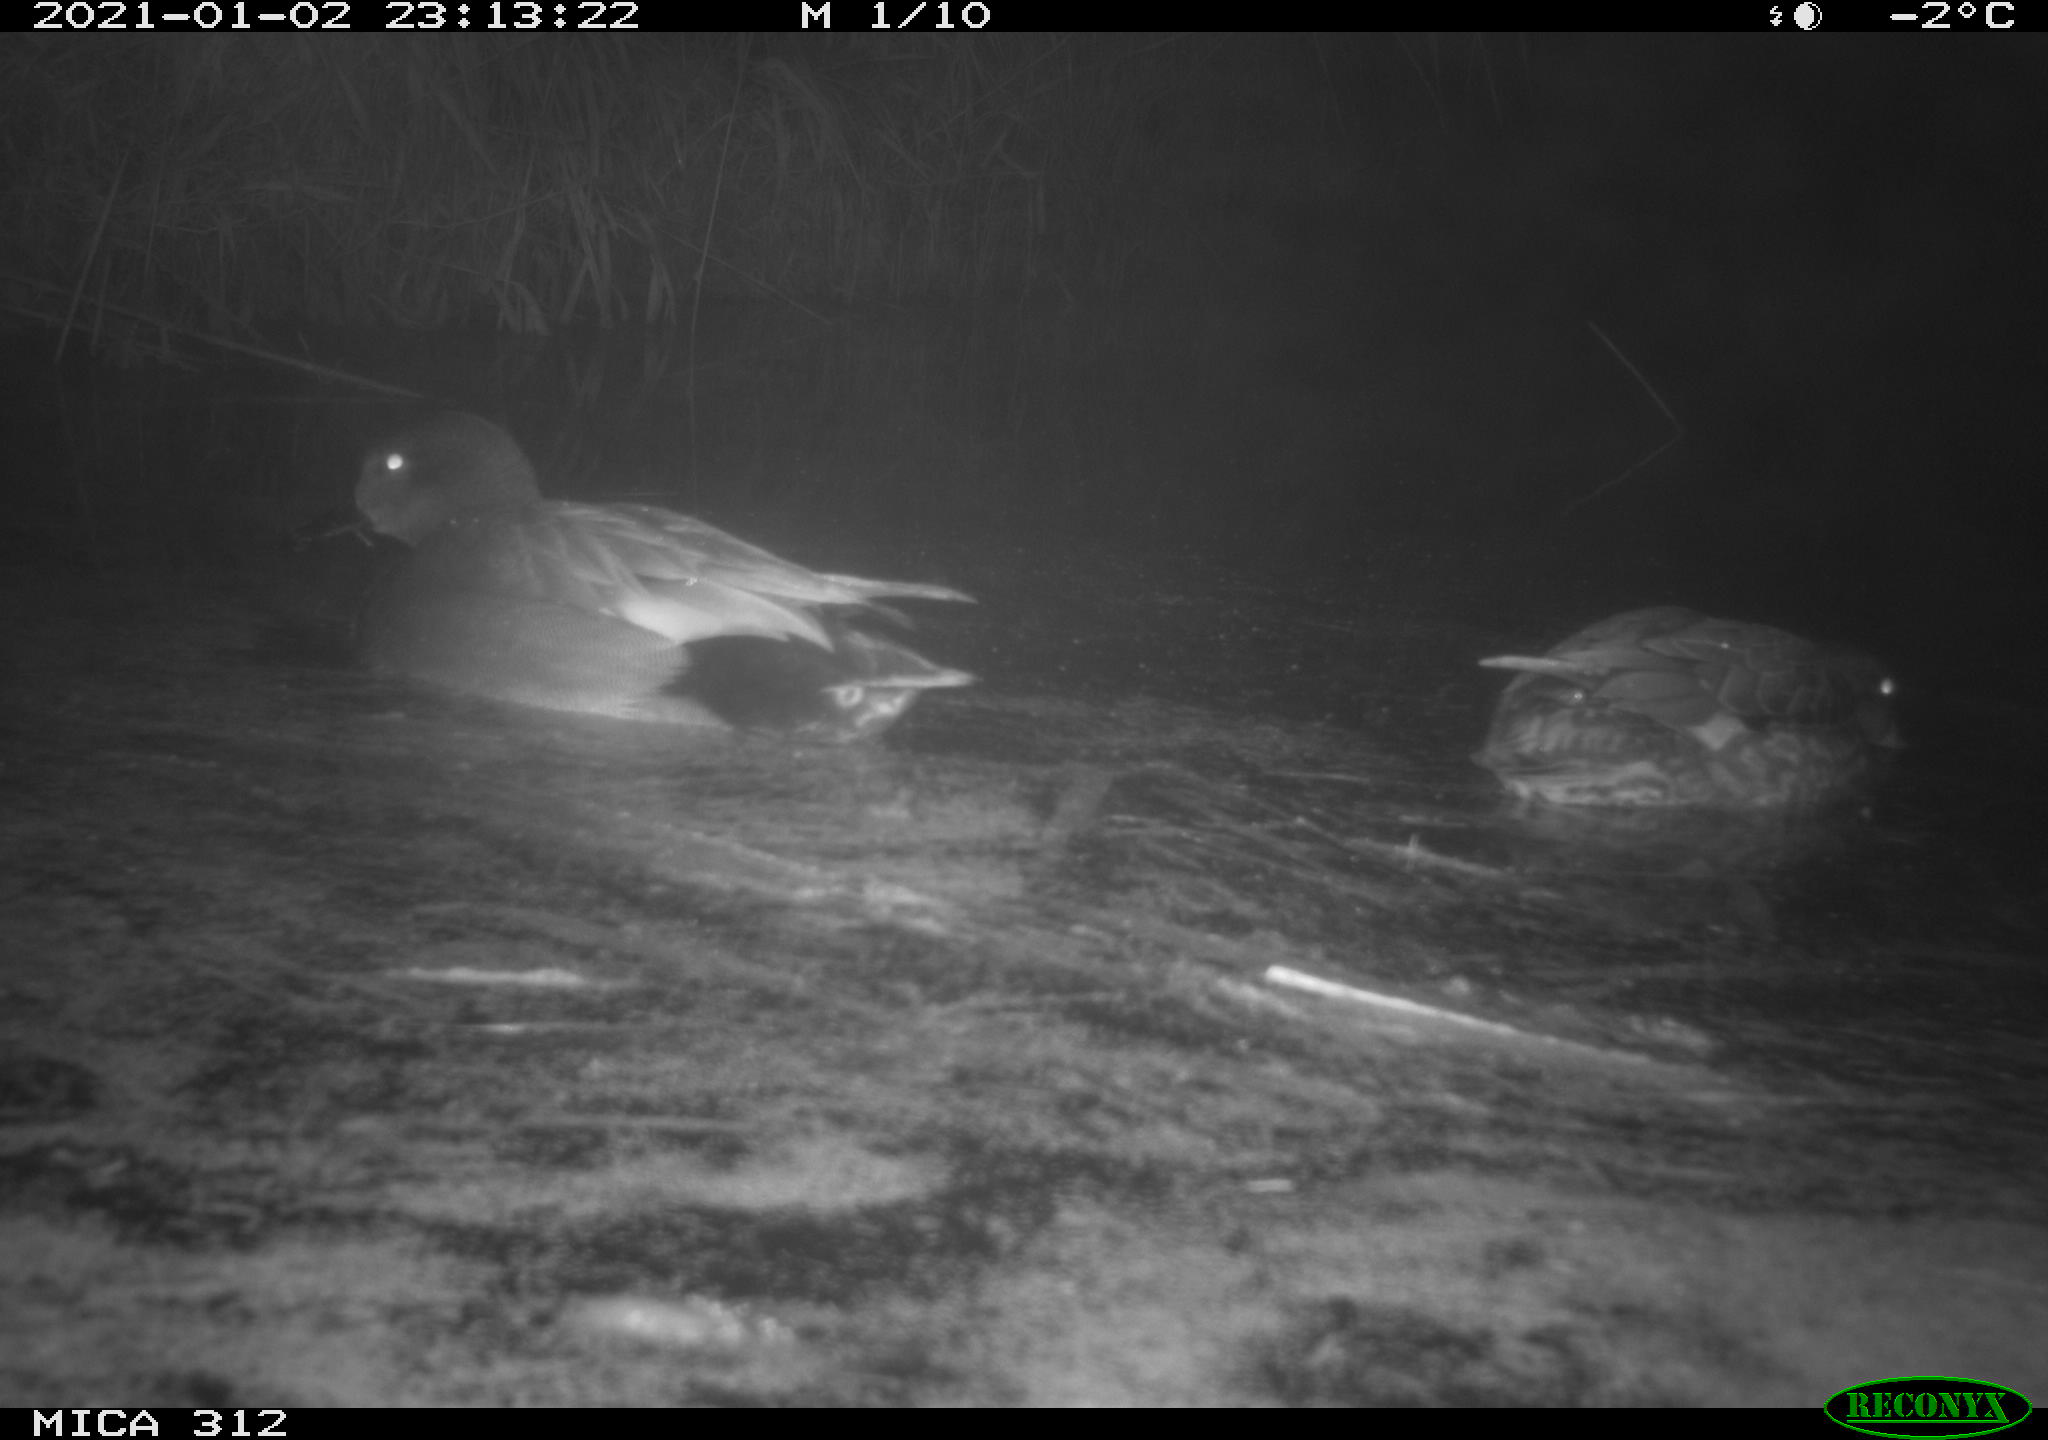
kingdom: Animalia
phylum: Chordata
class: Aves
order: Anseriformes
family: Anatidae
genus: Mareca
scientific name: Mareca strepera
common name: Gadwall
